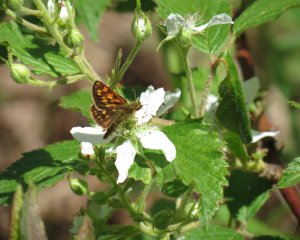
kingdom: Animalia
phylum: Arthropoda
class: Insecta
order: Lepidoptera
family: Hesperiidae
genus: Carterocephalus
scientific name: Carterocephalus palaemon
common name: Chequered Skipper
